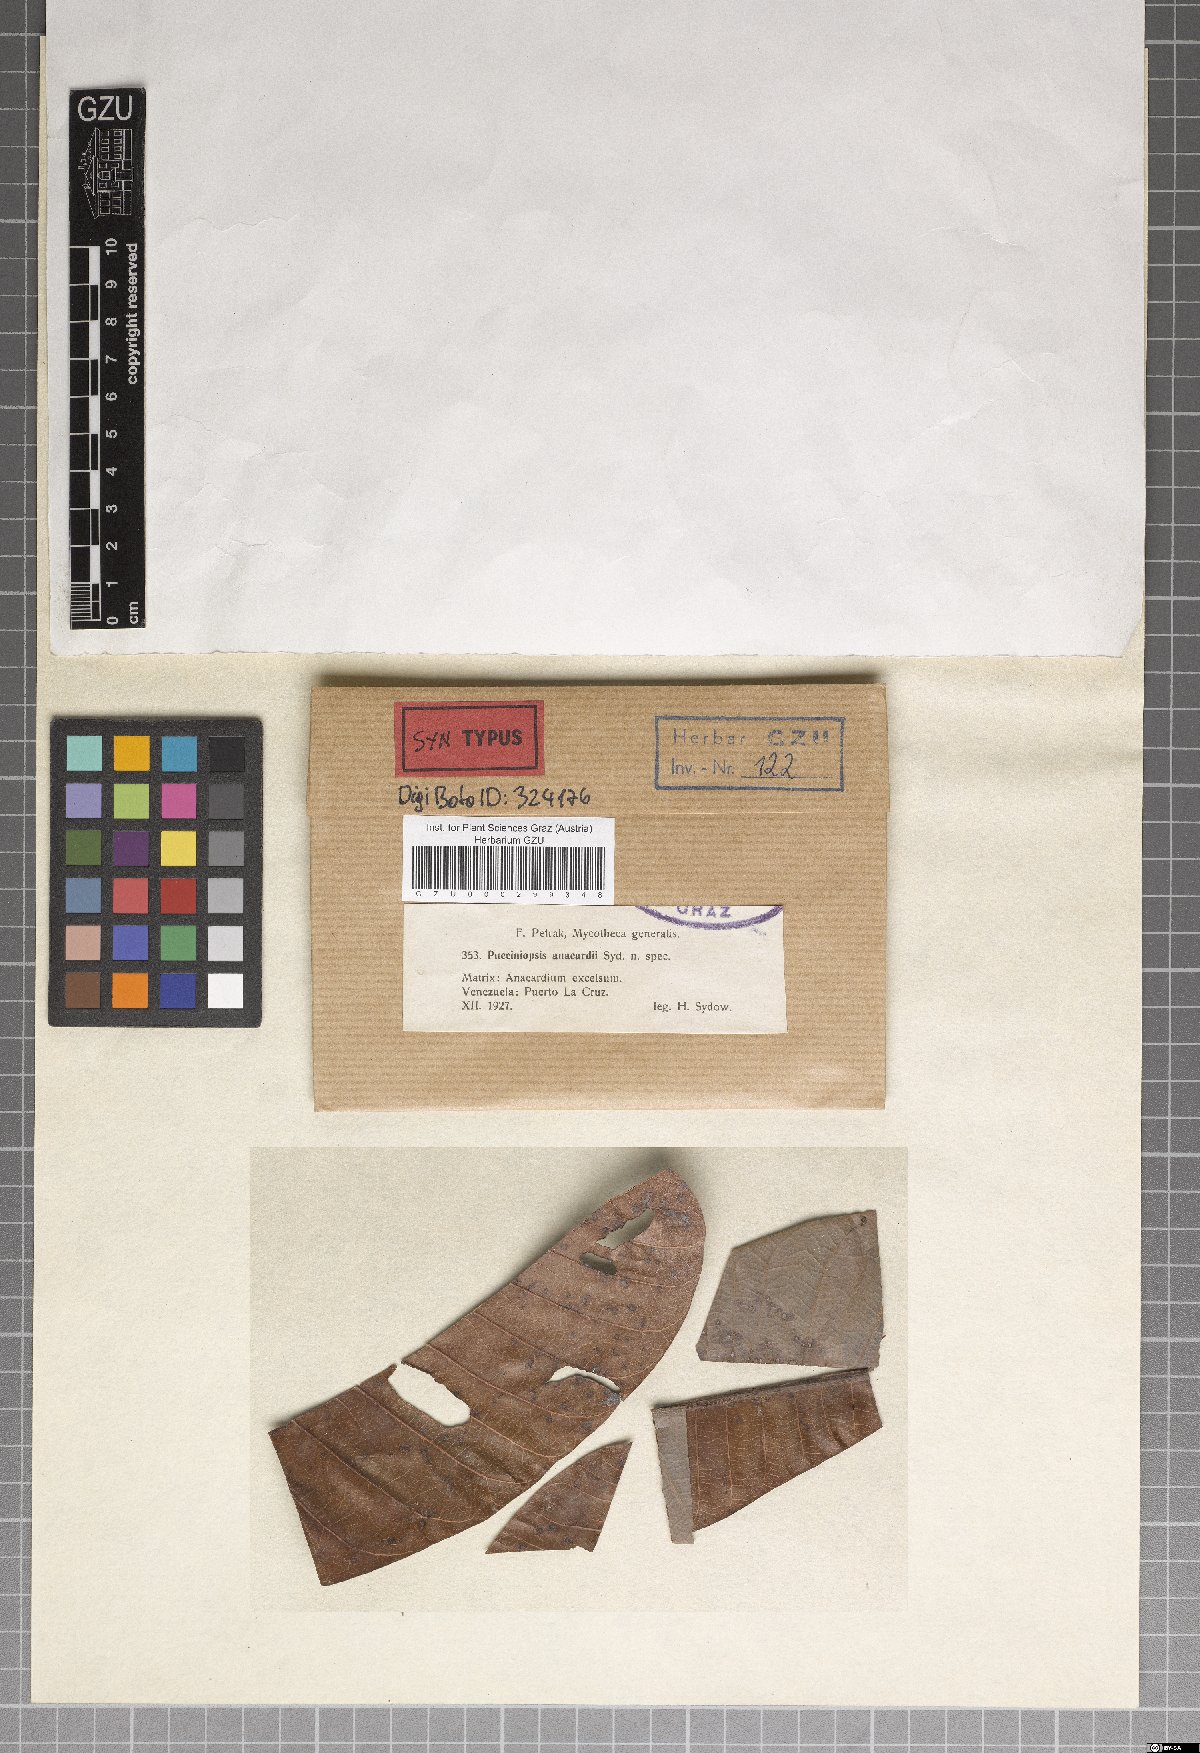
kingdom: Fungi
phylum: Ascomycota
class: Dothideomycetes
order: Mycosphaerellales
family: Mycosphaerellaceae
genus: Stigmina
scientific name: Stigmina anacardii
